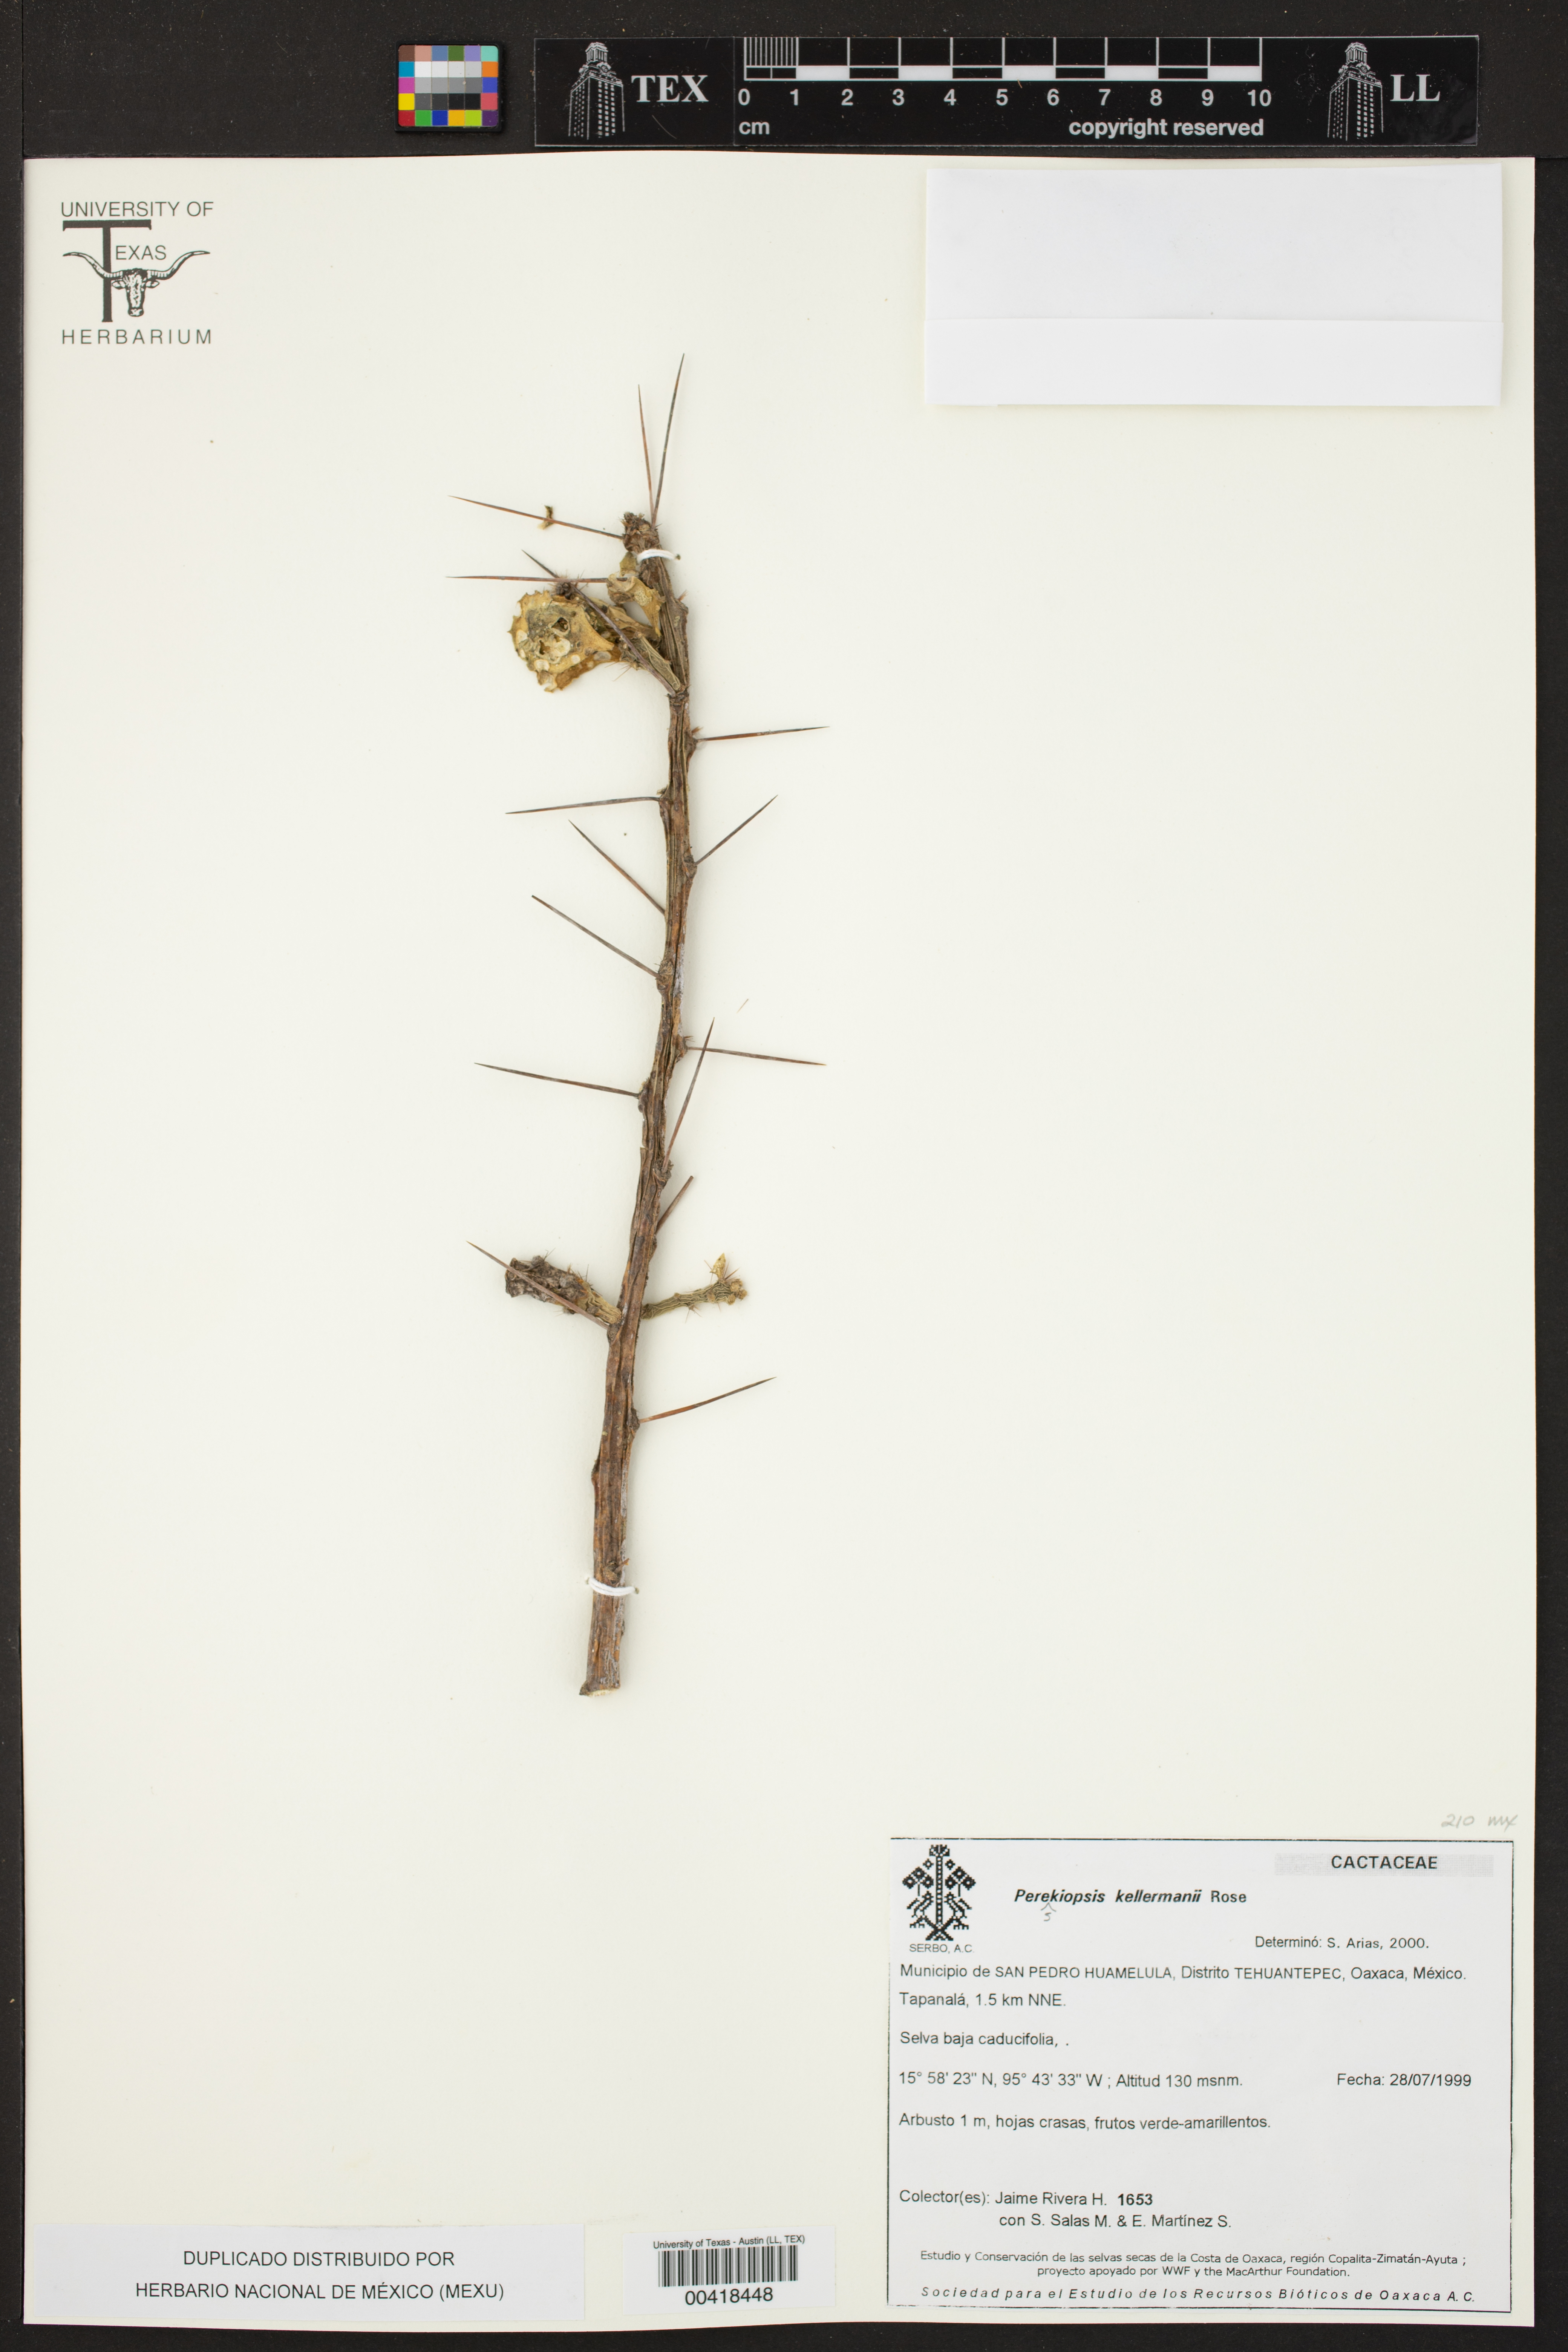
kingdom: Plantae
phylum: Tracheophyta
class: Magnoliopsida
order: Caryophyllales
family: Cactaceae
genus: Pereskiopsis
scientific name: Pereskiopsis kellermanii
